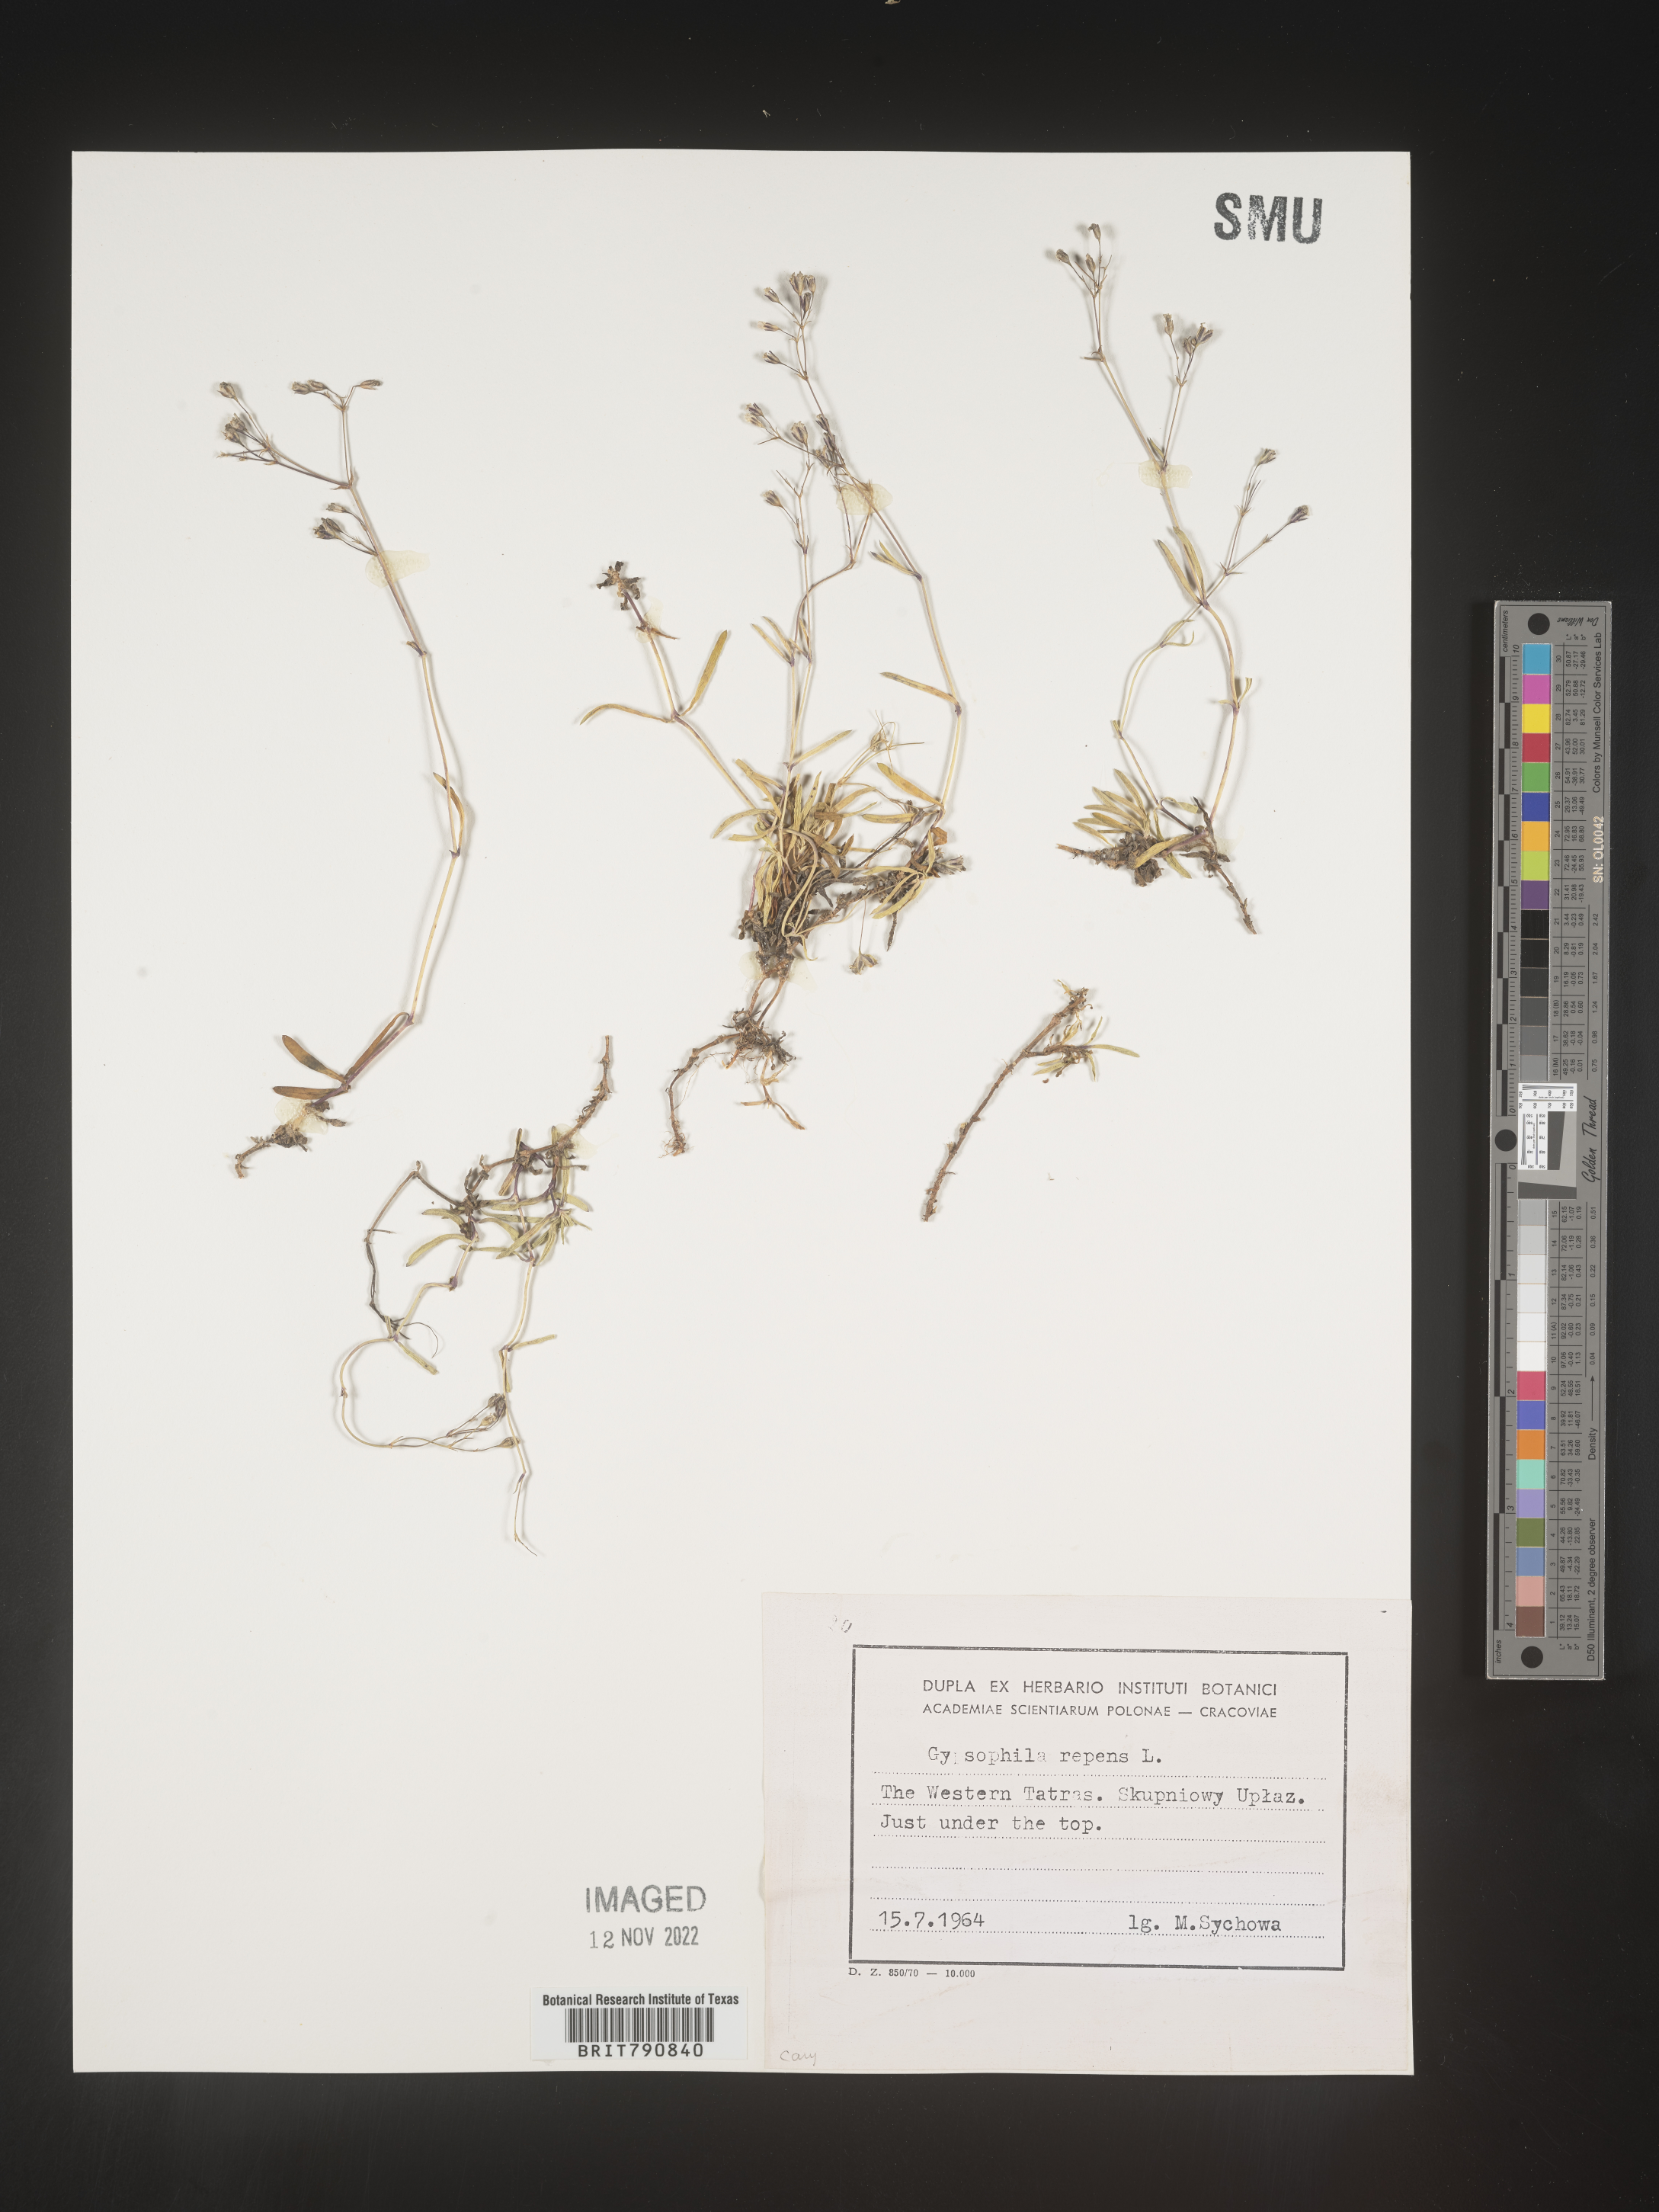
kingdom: Plantae
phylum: Tracheophyta
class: Magnoliopsida
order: Caryophyllales
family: Caryophyllaceae
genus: Gypsophila
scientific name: Gypsophila
